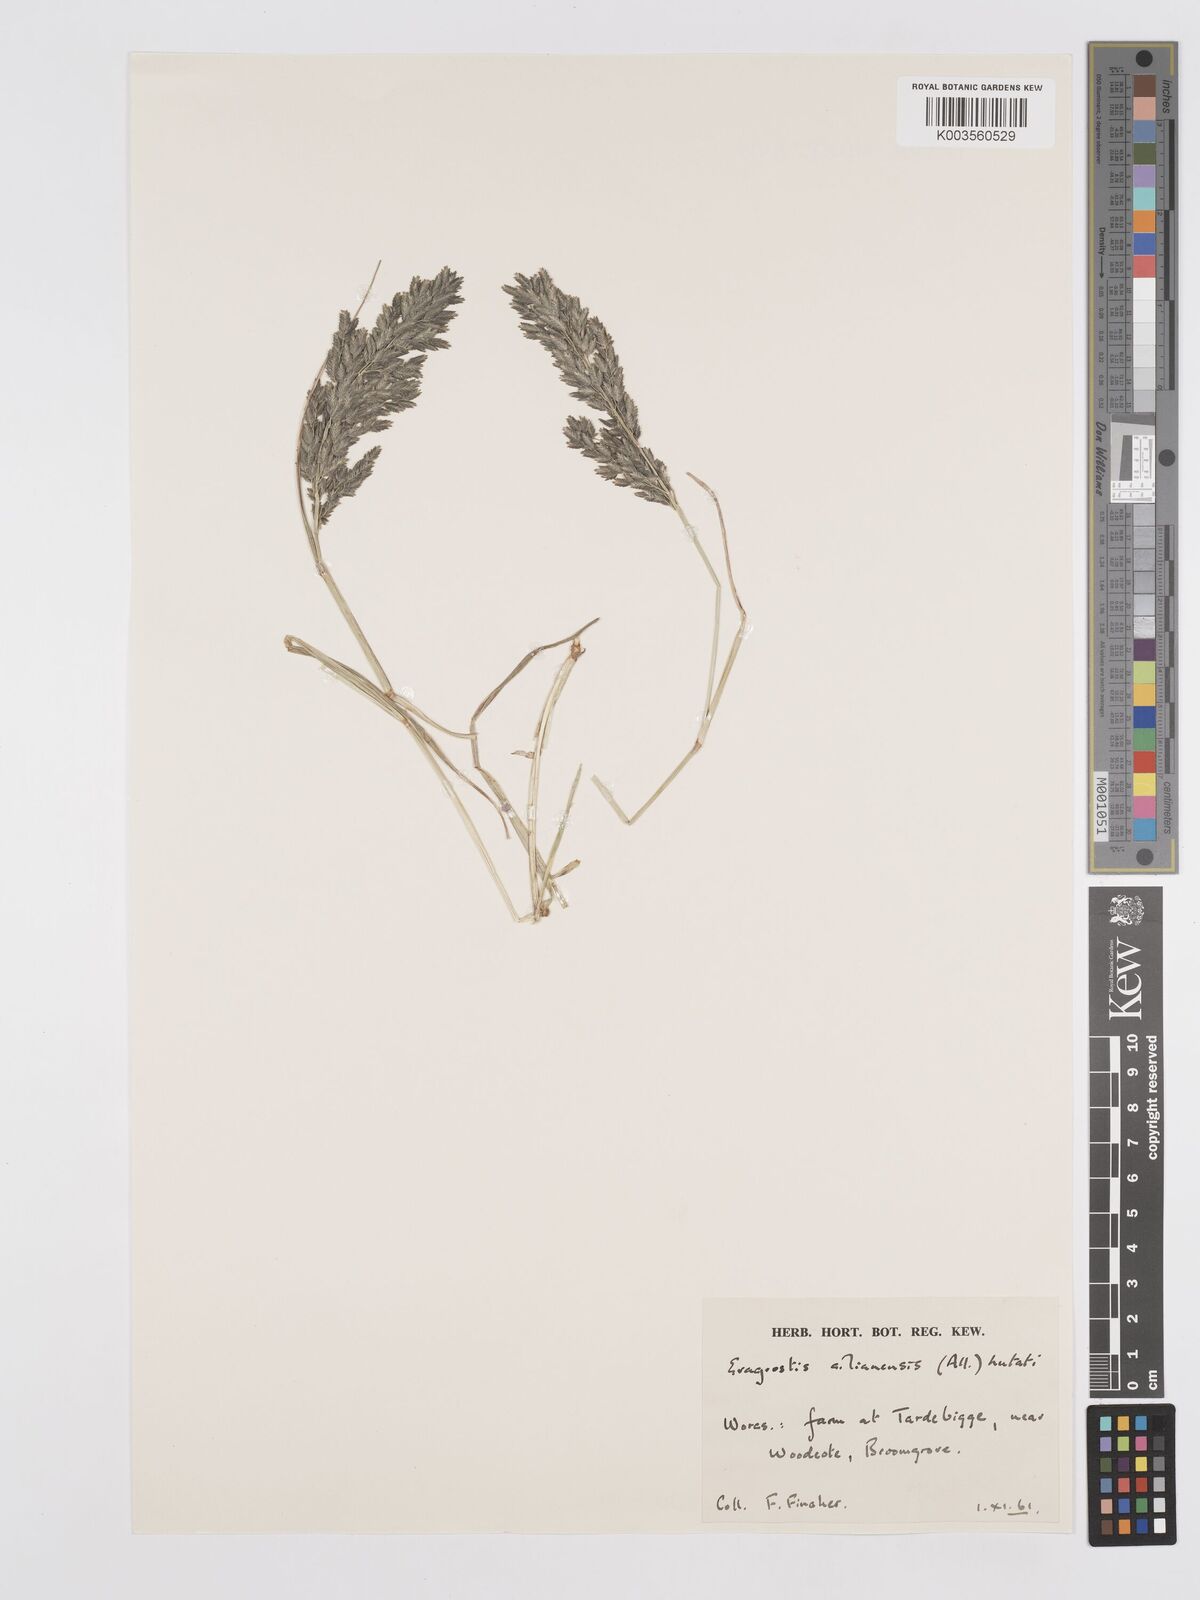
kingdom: Plantae
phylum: Tracheophyta
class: Liliopsida
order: Poales
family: Poaceae
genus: Eragrostis
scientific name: Eragrostis cilianensis
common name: Stinkgrass
